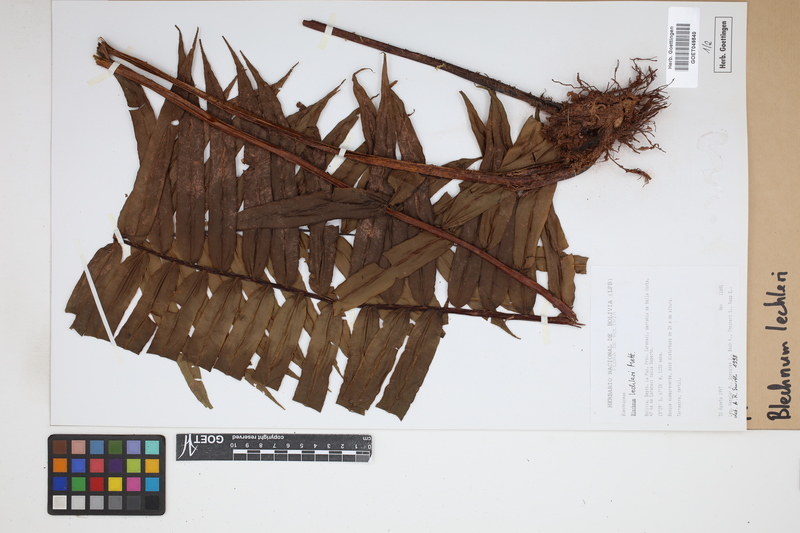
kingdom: Plantae
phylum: Tracheophyta
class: Polypodiopsida
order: Polypodiales
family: Blechnaceae
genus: Parablechnum
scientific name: Parablechnum lechleri
